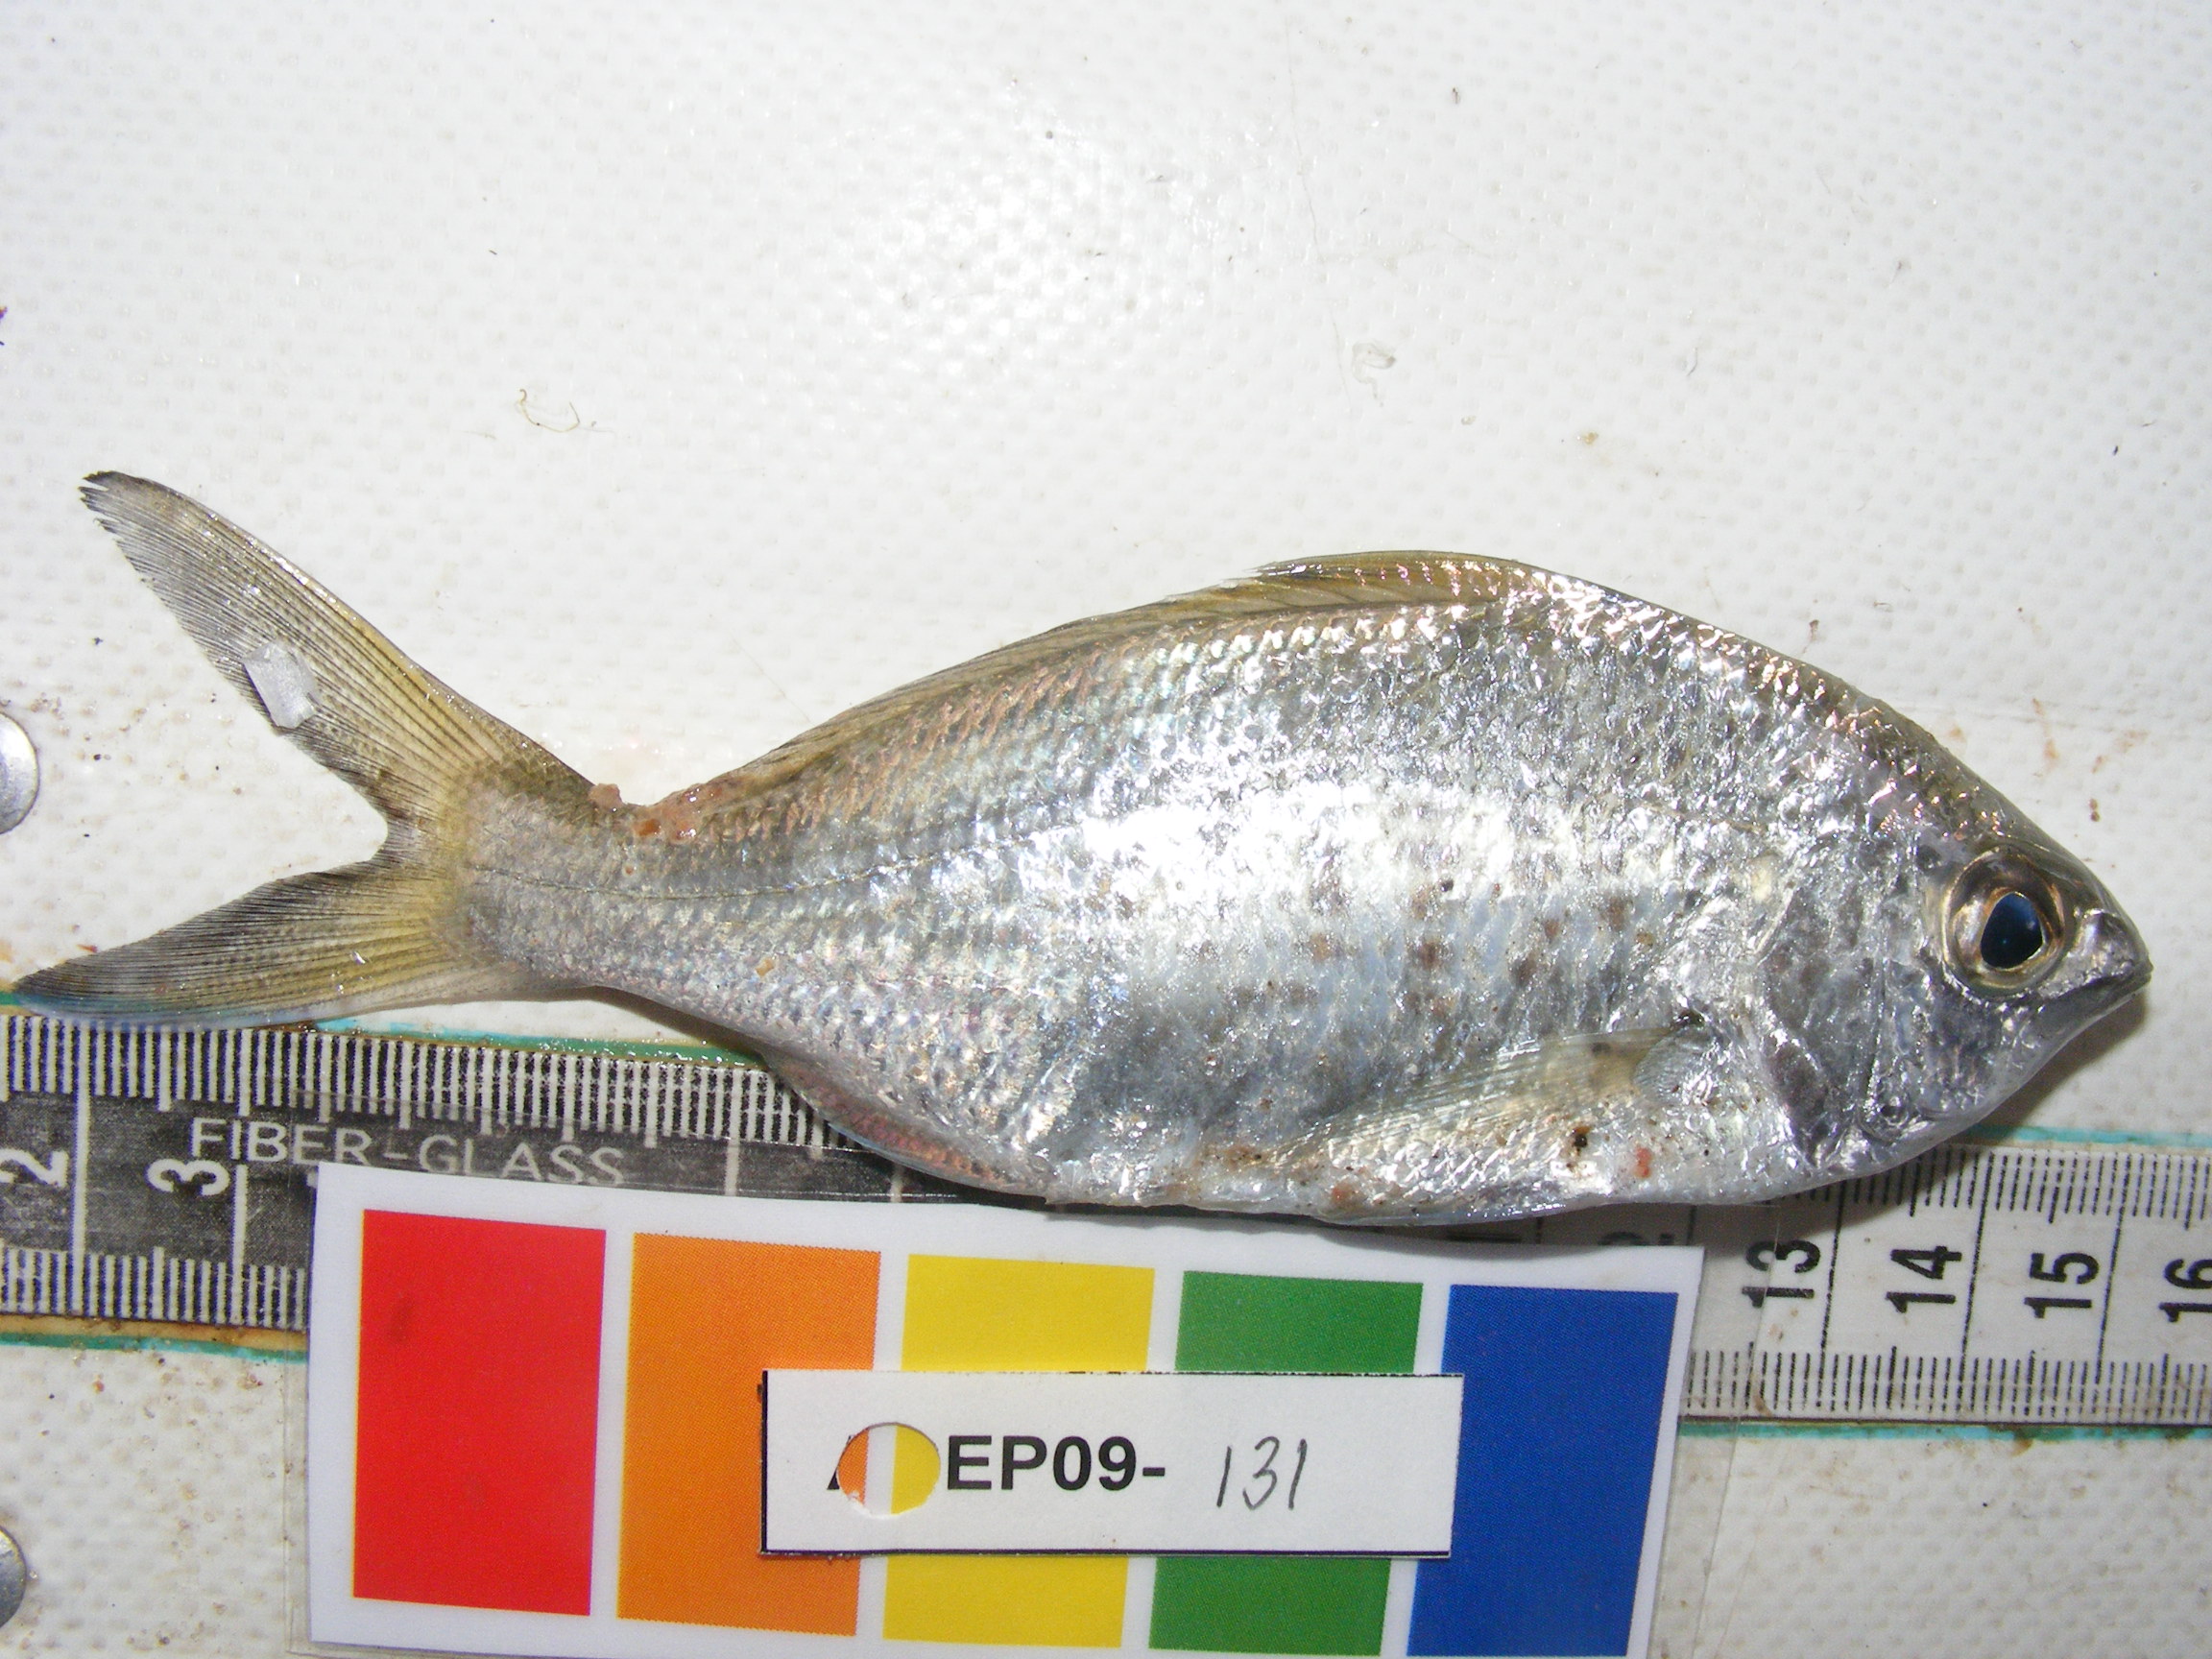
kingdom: Animalia
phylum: Chordata
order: Perciformes
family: Gerreidae
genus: Gerres
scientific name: Gerres methueni
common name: Longtail silverbiddy
